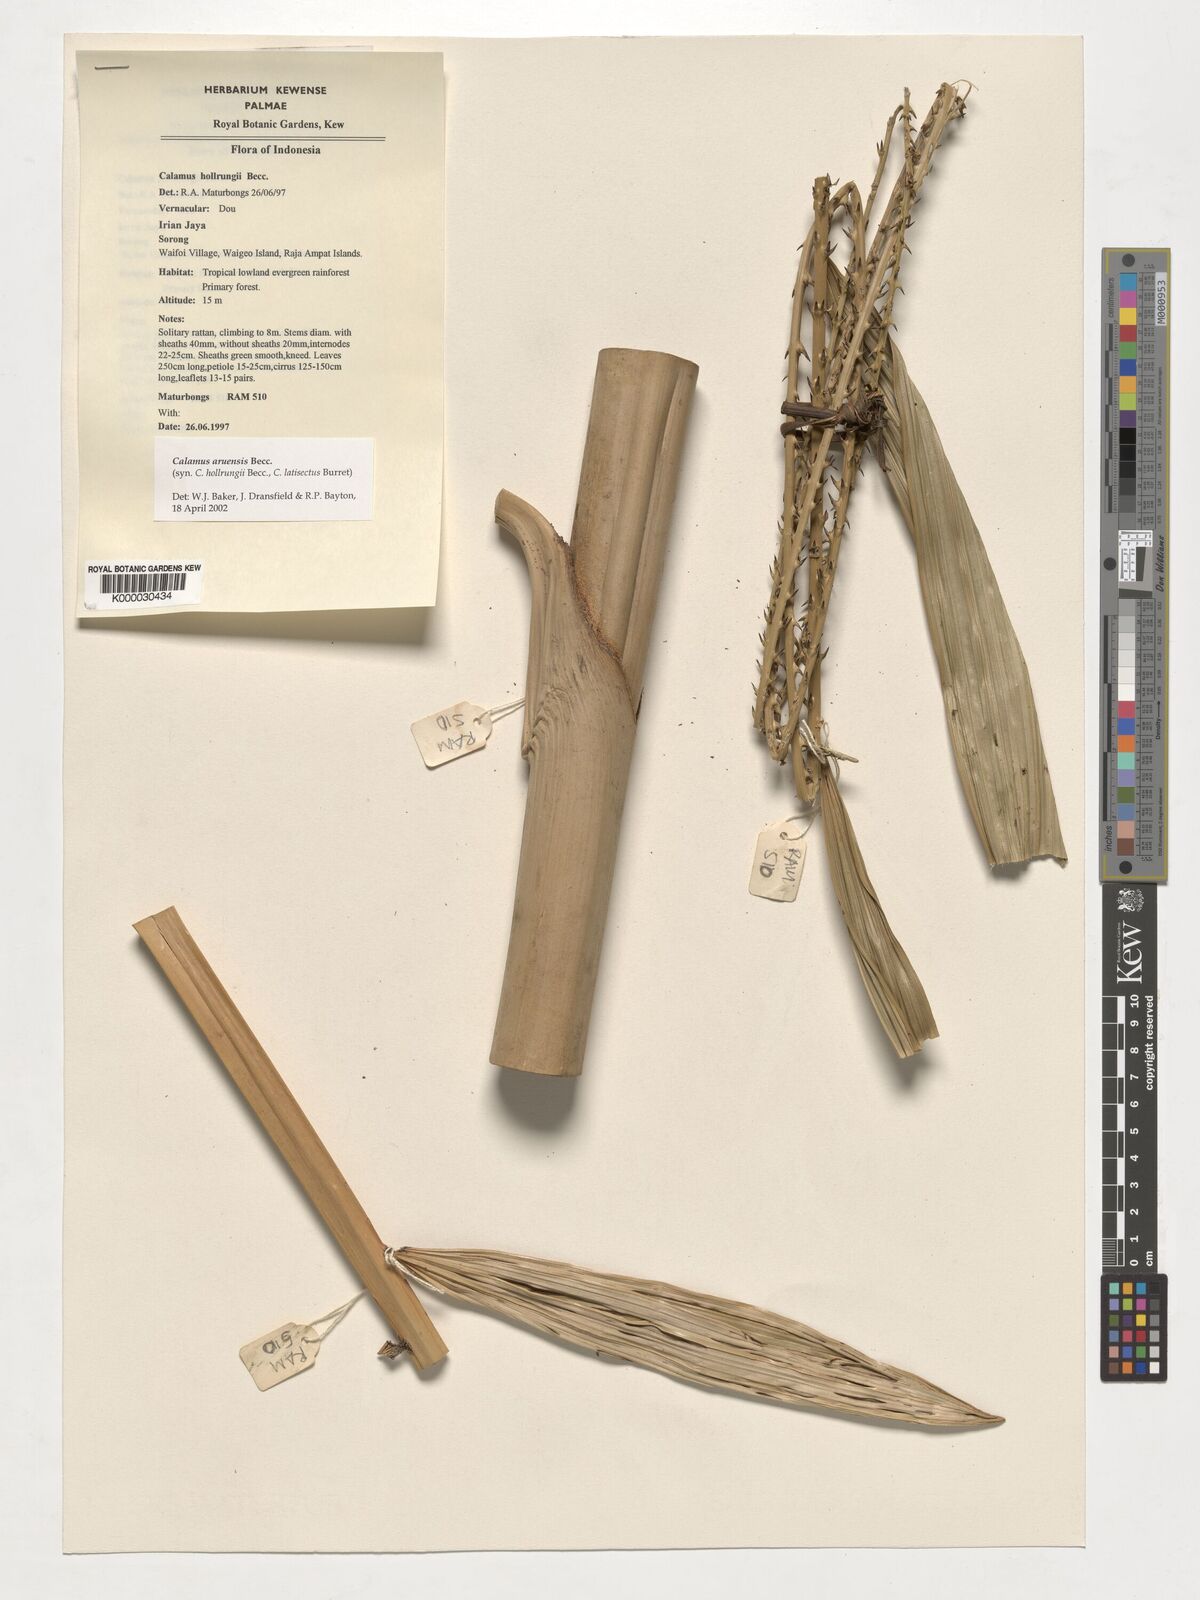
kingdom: Plantae
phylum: Tracheophyta
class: Liliopsida
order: Arecales
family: Arecaceae
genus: Calamus
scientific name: Calamus aruensis
